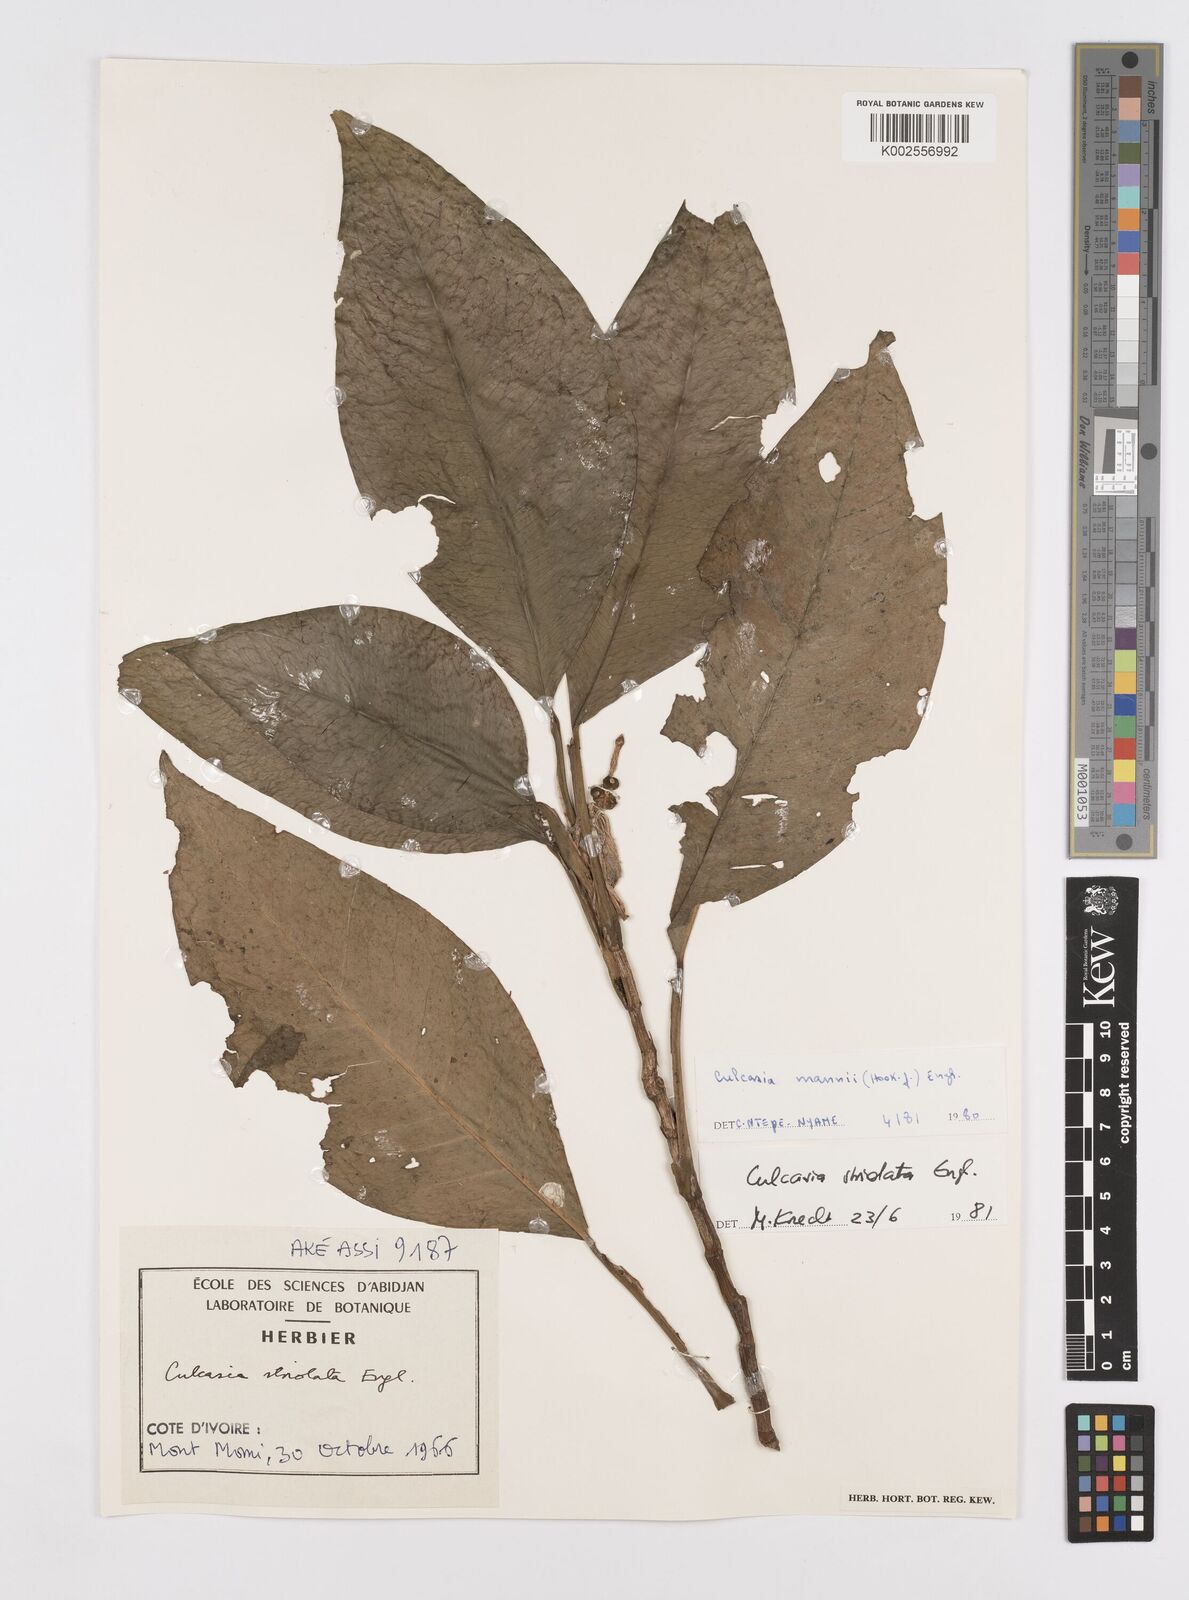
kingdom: Plantae
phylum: Tracheophyta
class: Liliopsida
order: Alismatales
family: Araceae
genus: Culcasia
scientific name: Culcasia striolata
